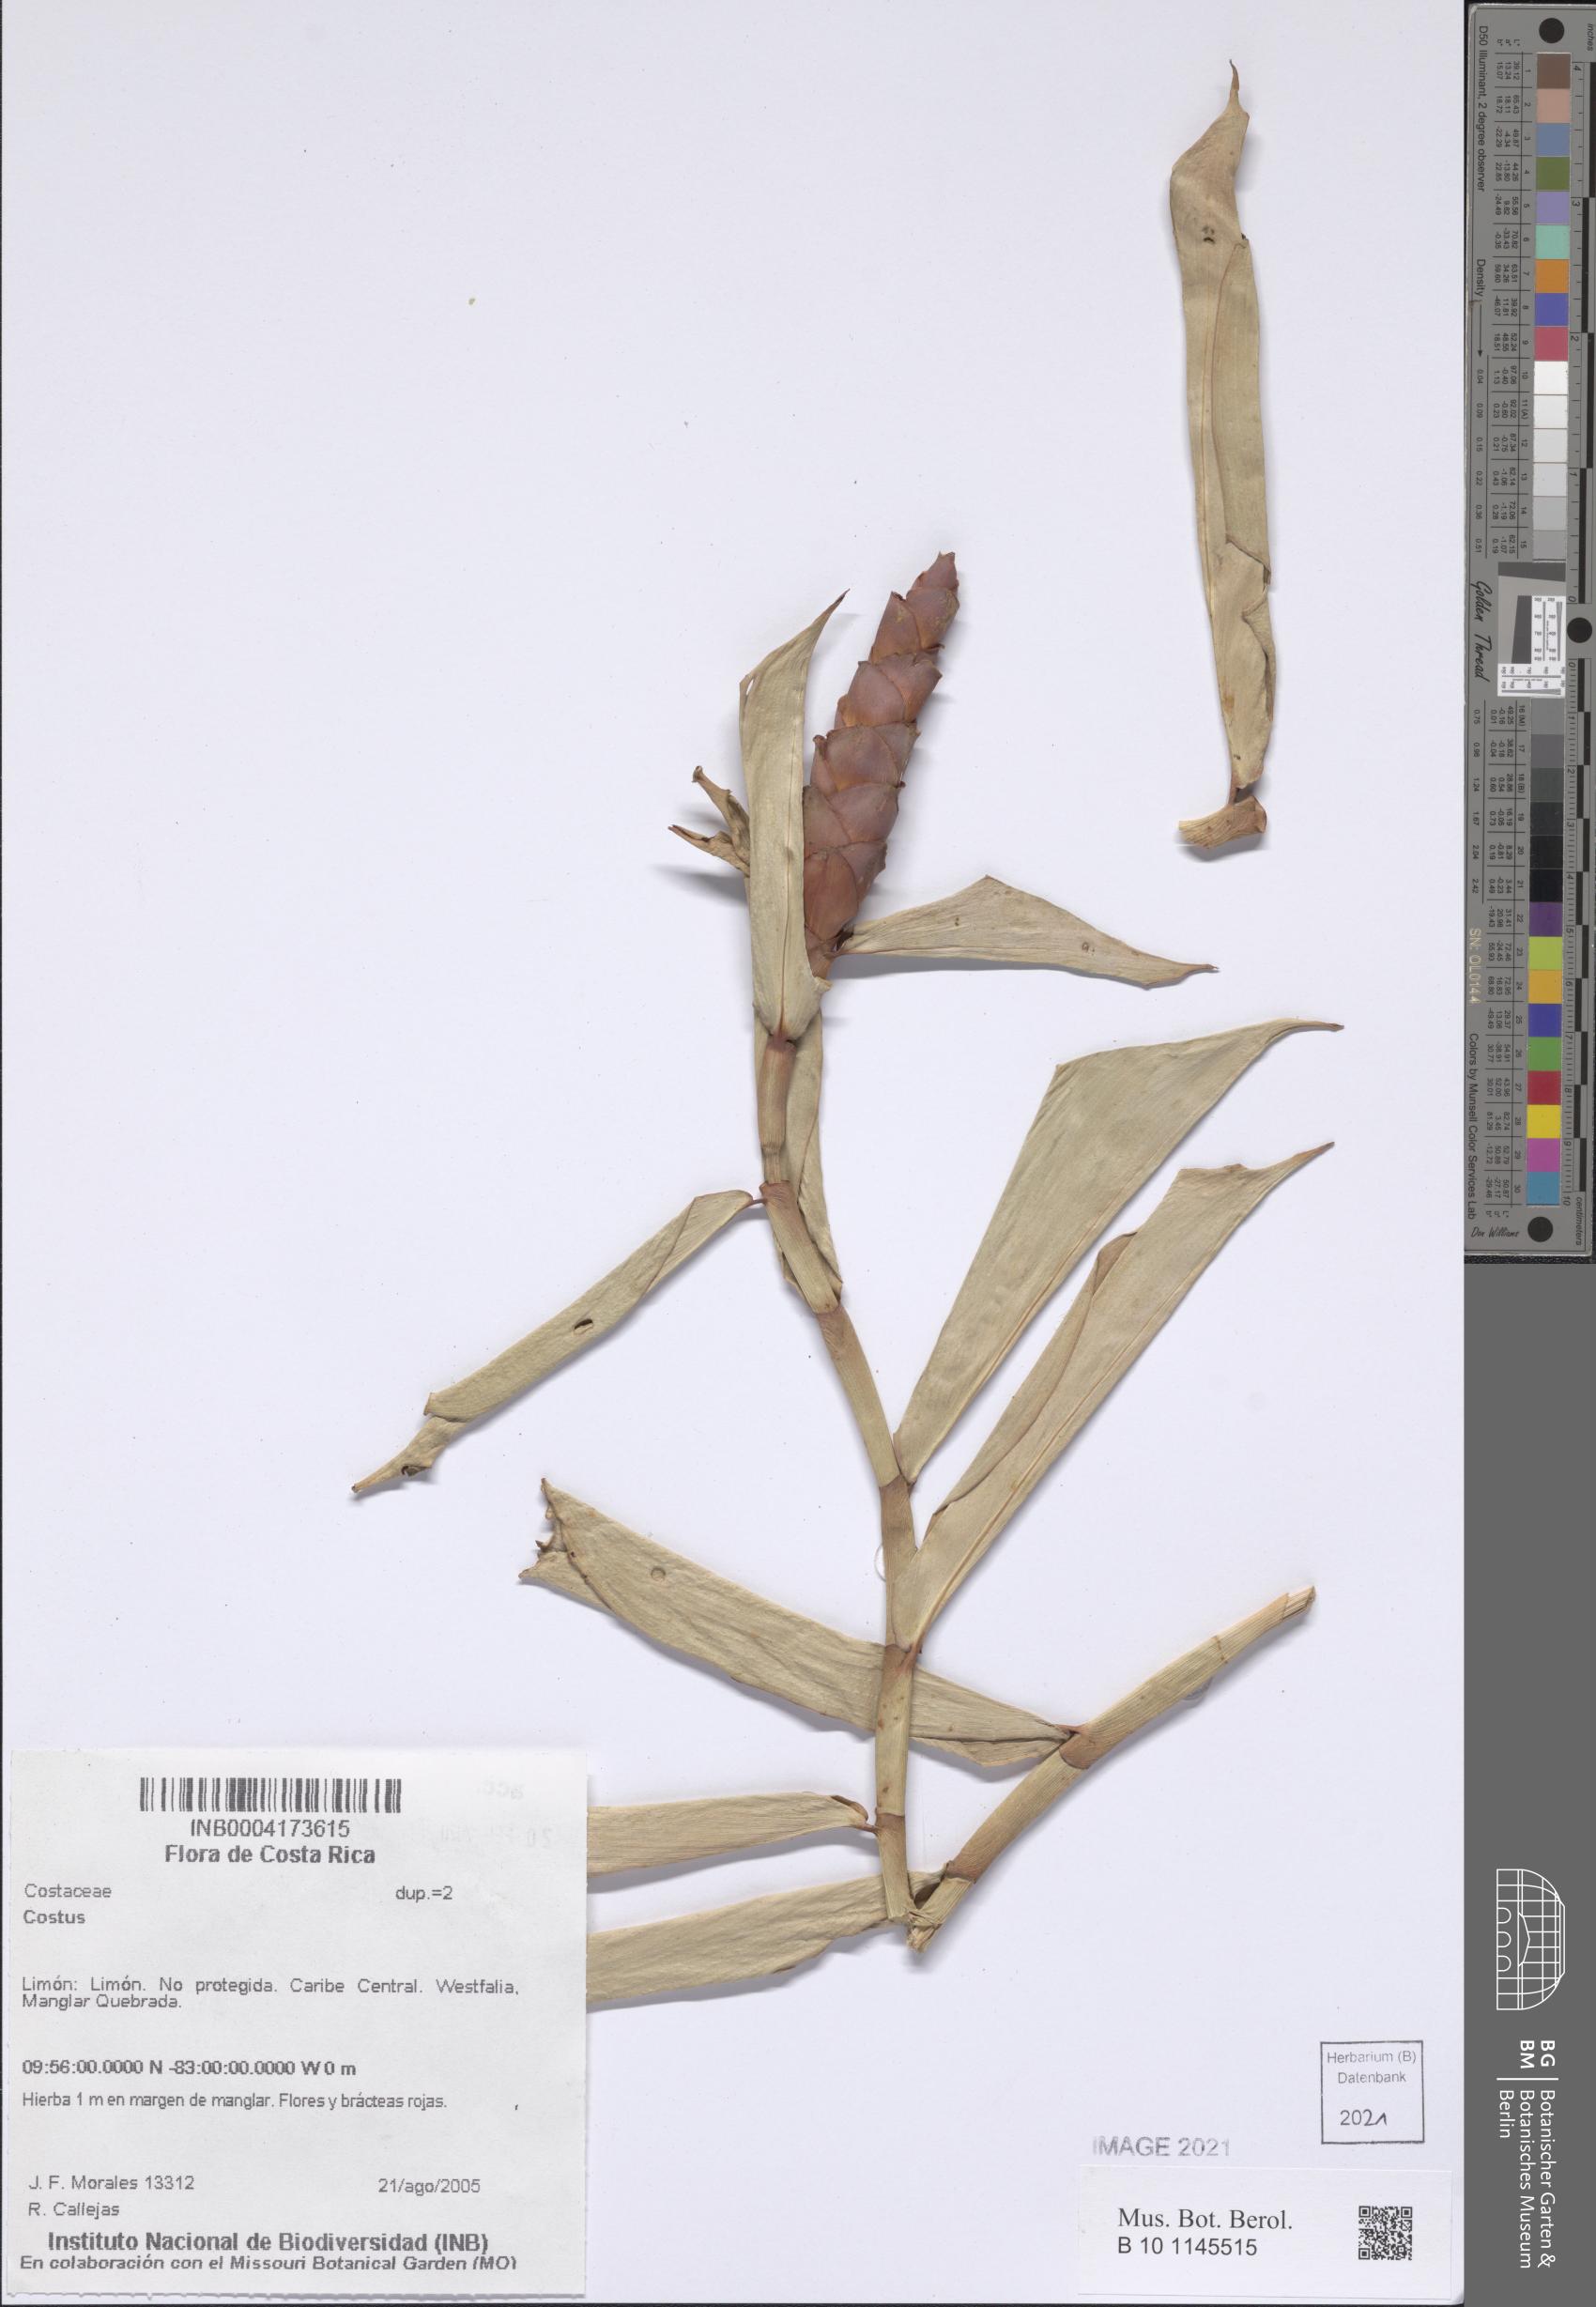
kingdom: Plantae
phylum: Tracheophyta
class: Liliopsida
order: Zingiberales
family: Costaceae
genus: Costus
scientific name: Costus
